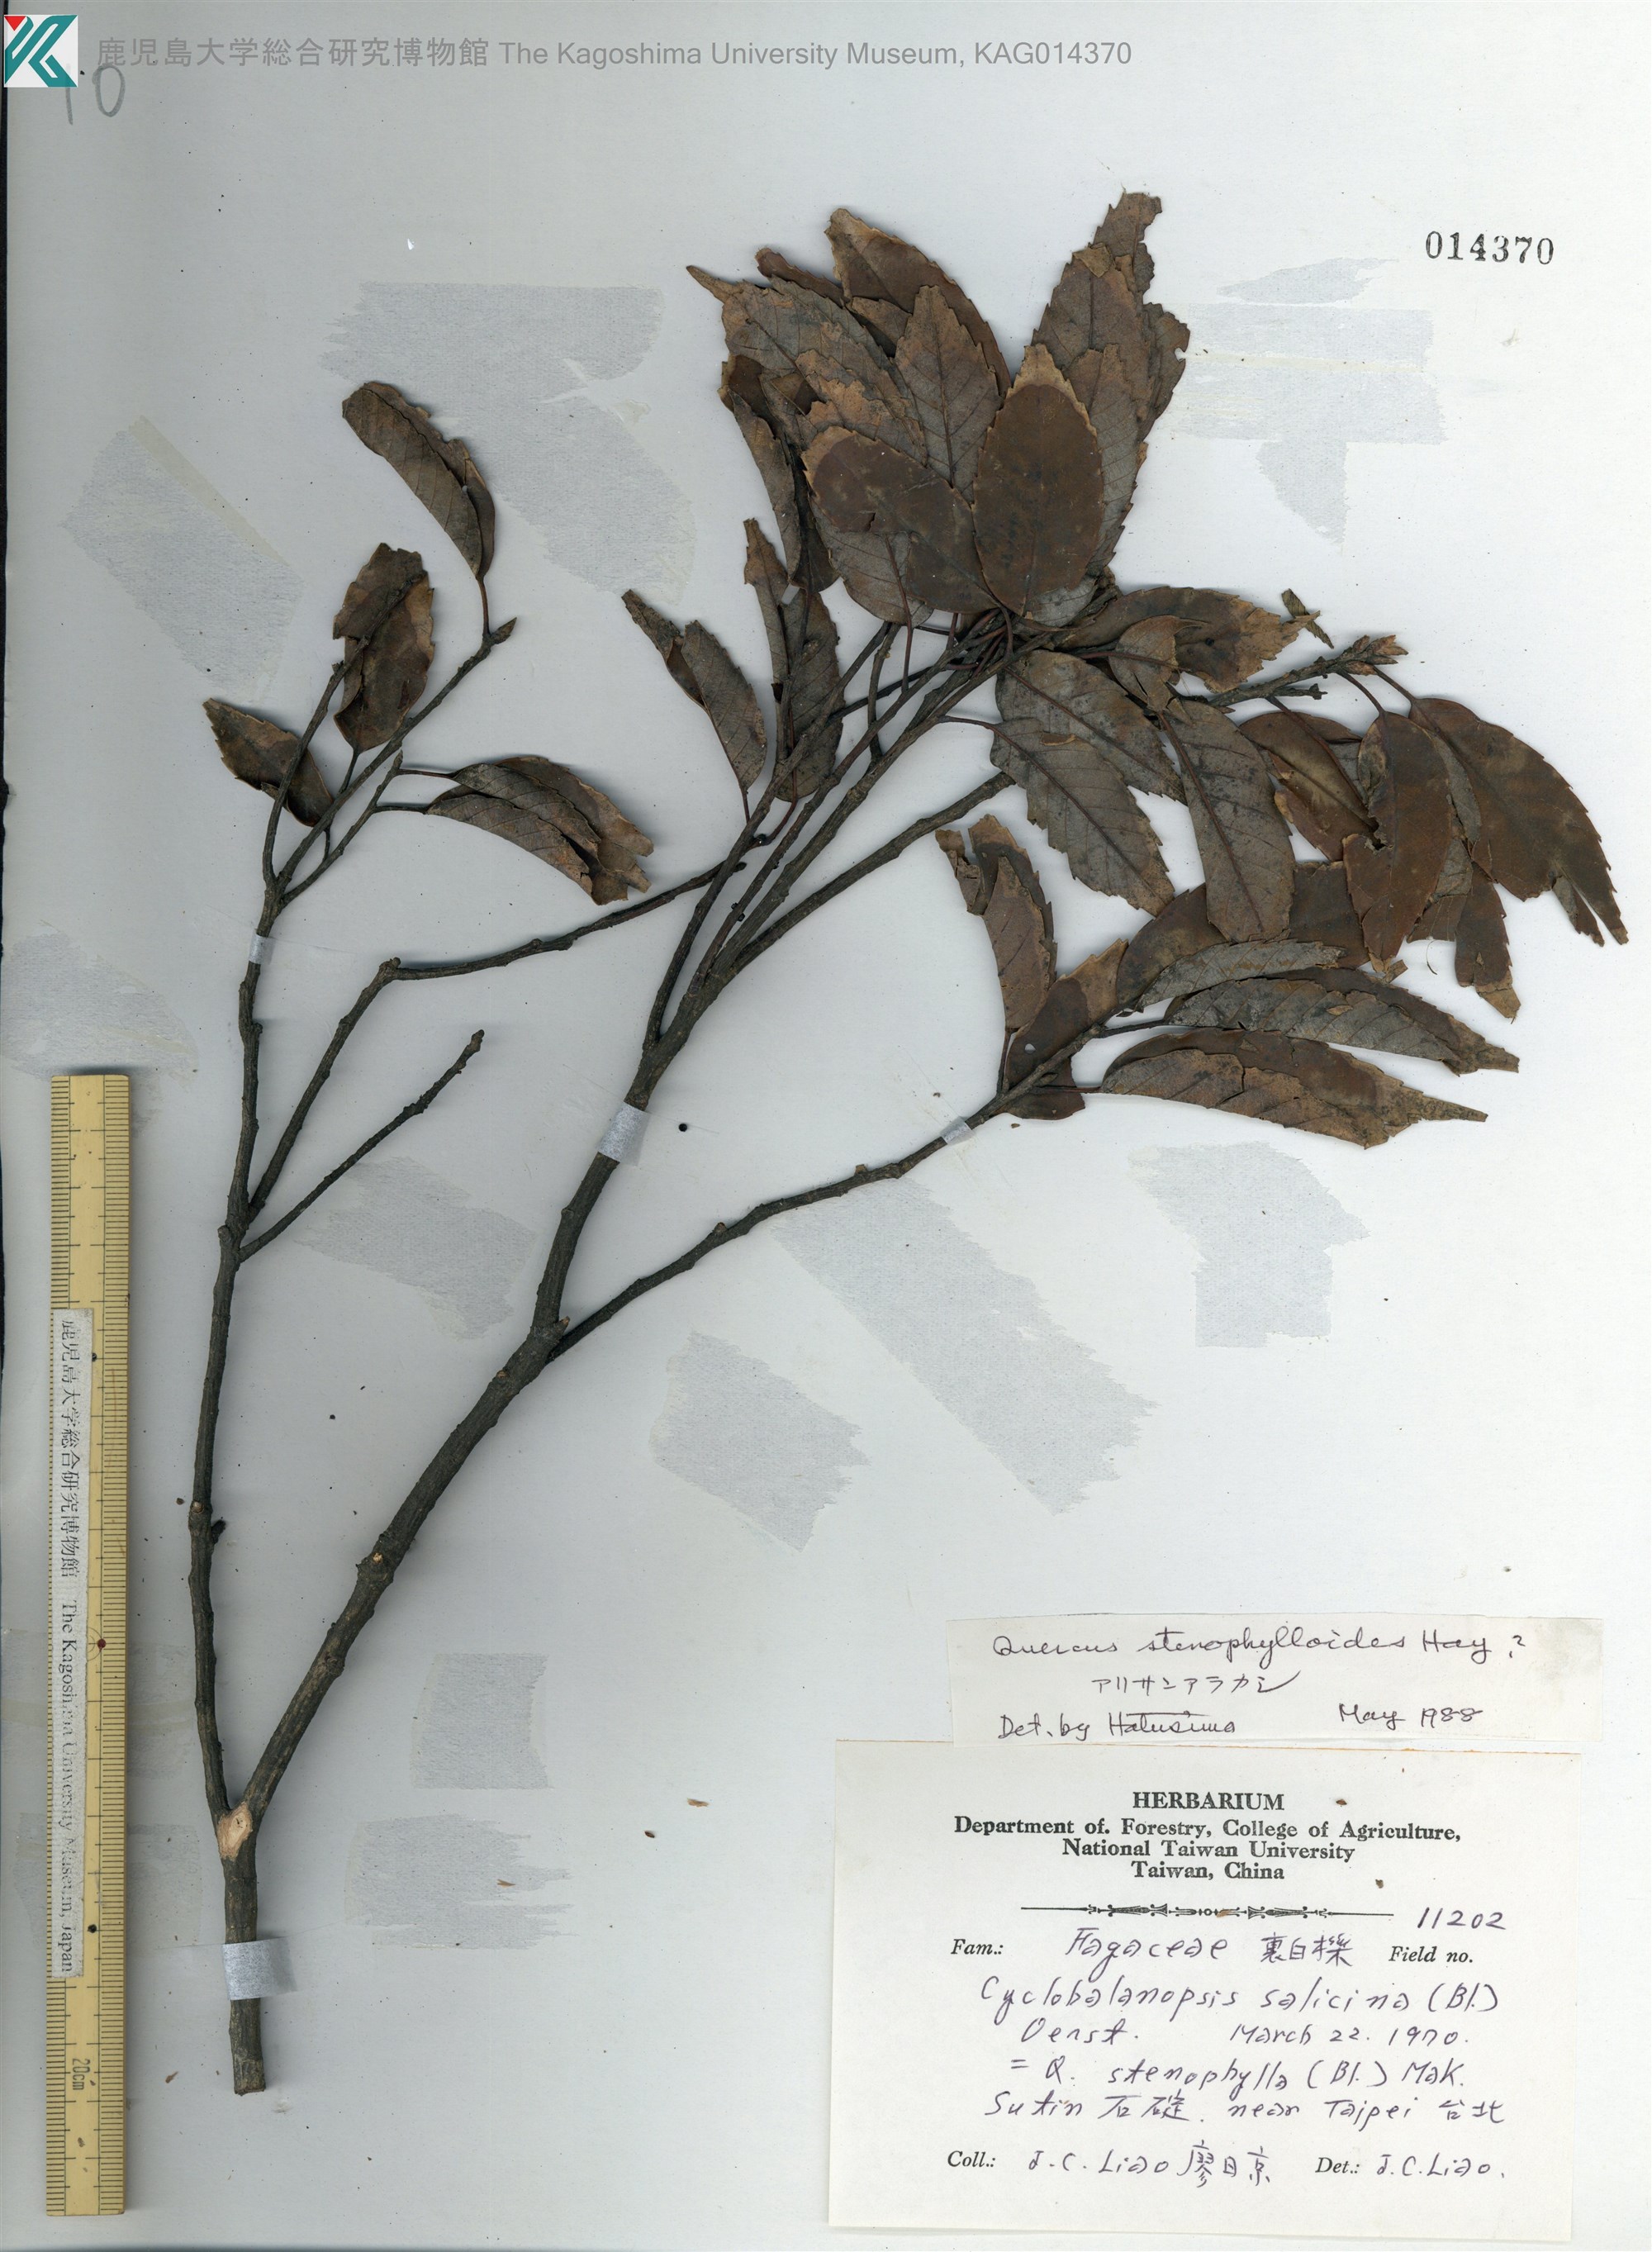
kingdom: Plantae
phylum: Tracheophyta
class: Magnoliopsida
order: Fagales
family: Fagaceae
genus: Quercus
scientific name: Quercus stenophylloides
